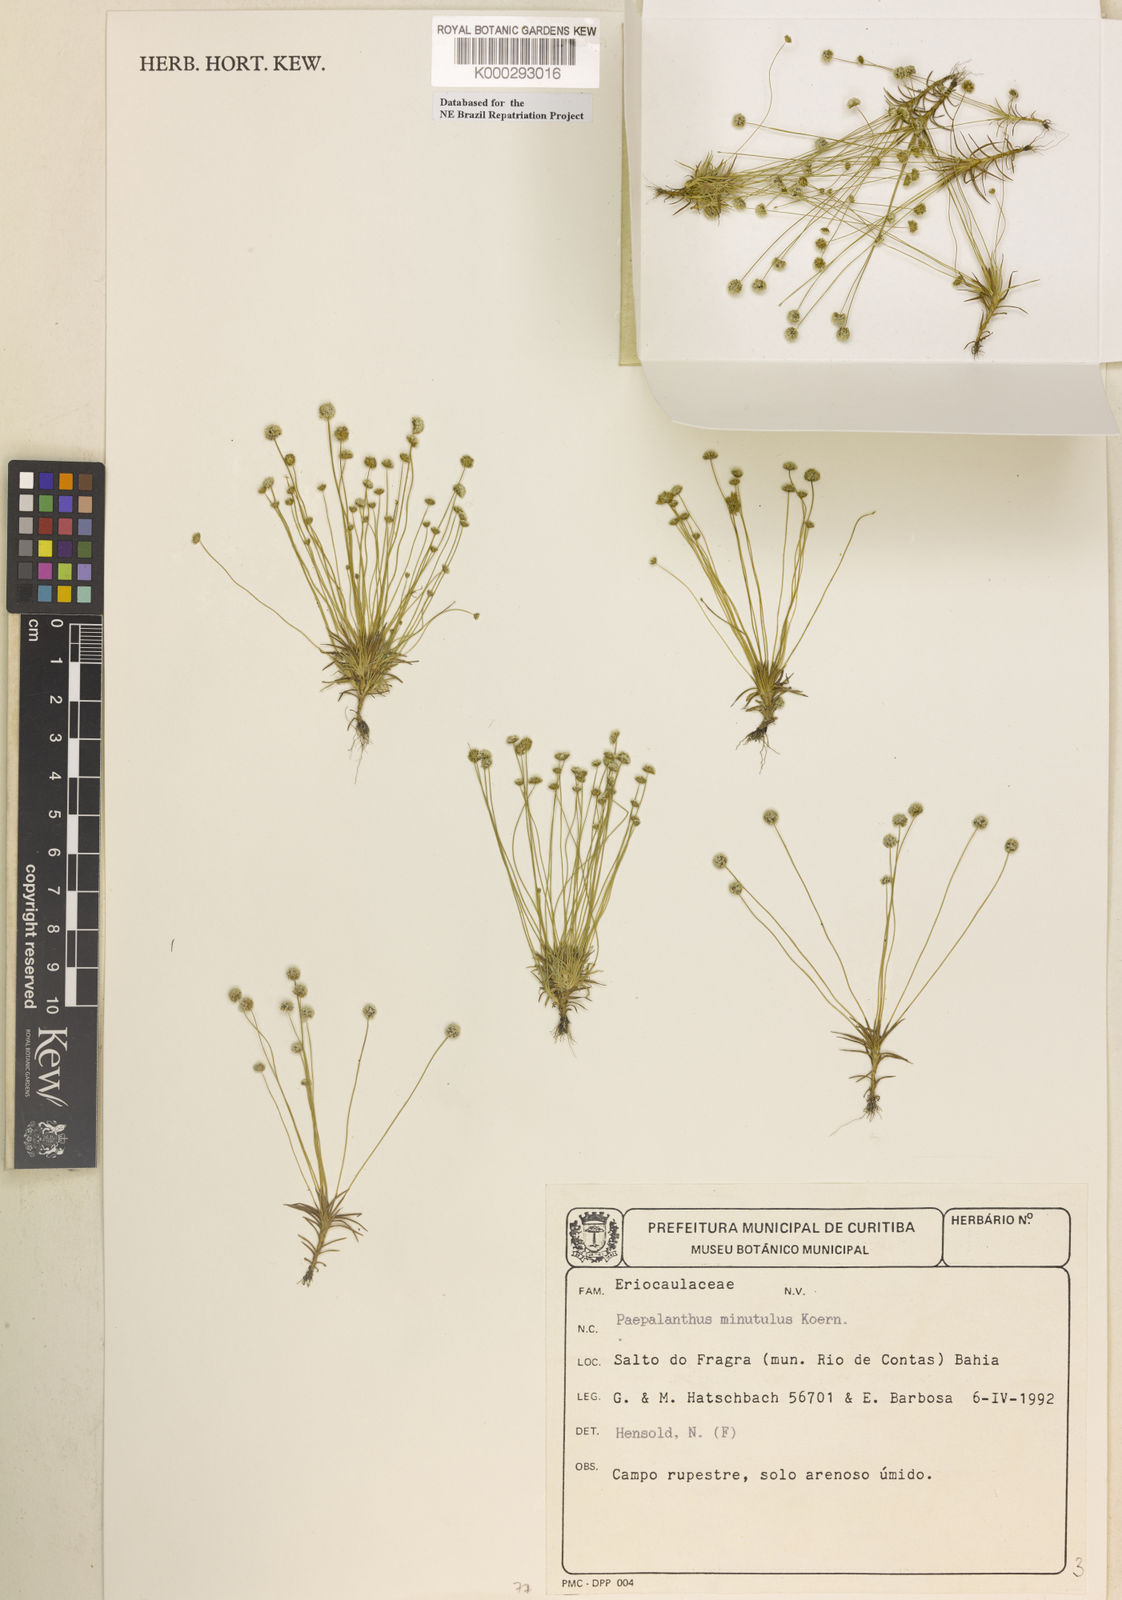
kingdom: Plantae
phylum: Tracheophyta
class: Liliopsida
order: Poales
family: Eriocaulaceae
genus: Paepalanthus
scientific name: Paepalanthus
